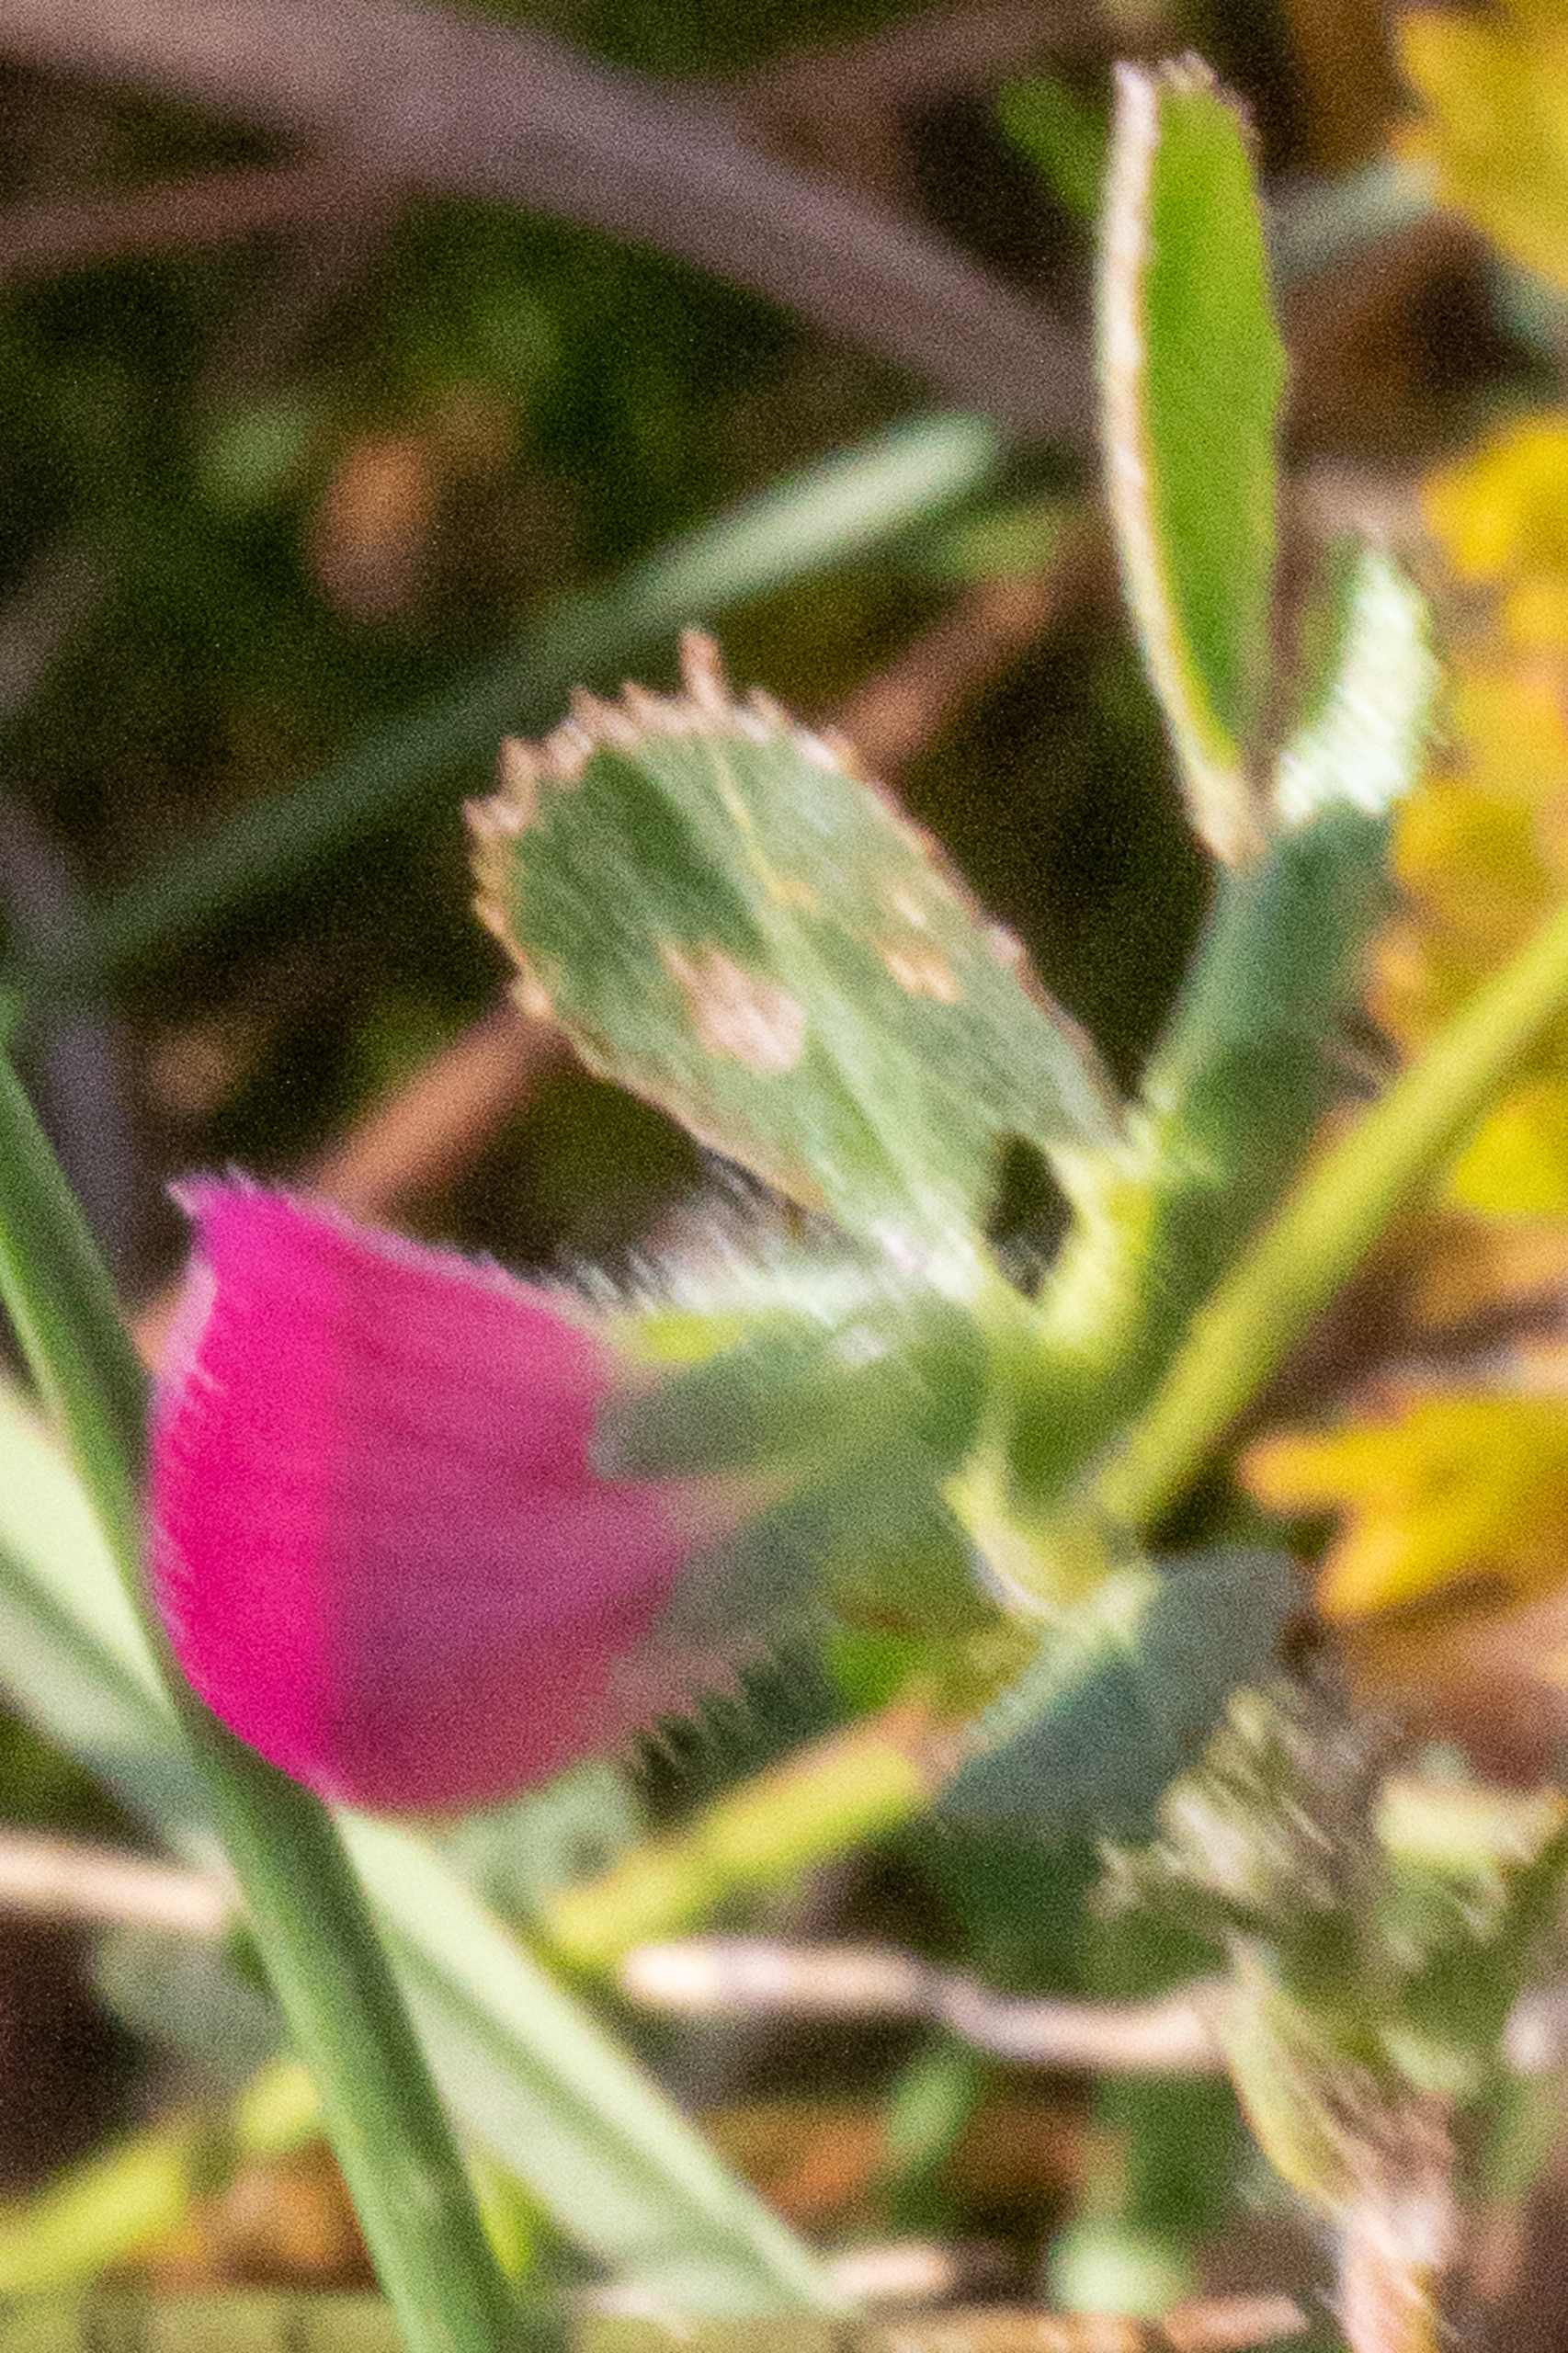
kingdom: Plantae
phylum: Tracheophyta
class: Magnoliopsida
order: Fabales
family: Fabaceae
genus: Ononis
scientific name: Ononis spinosa
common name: Mark-krageklo
